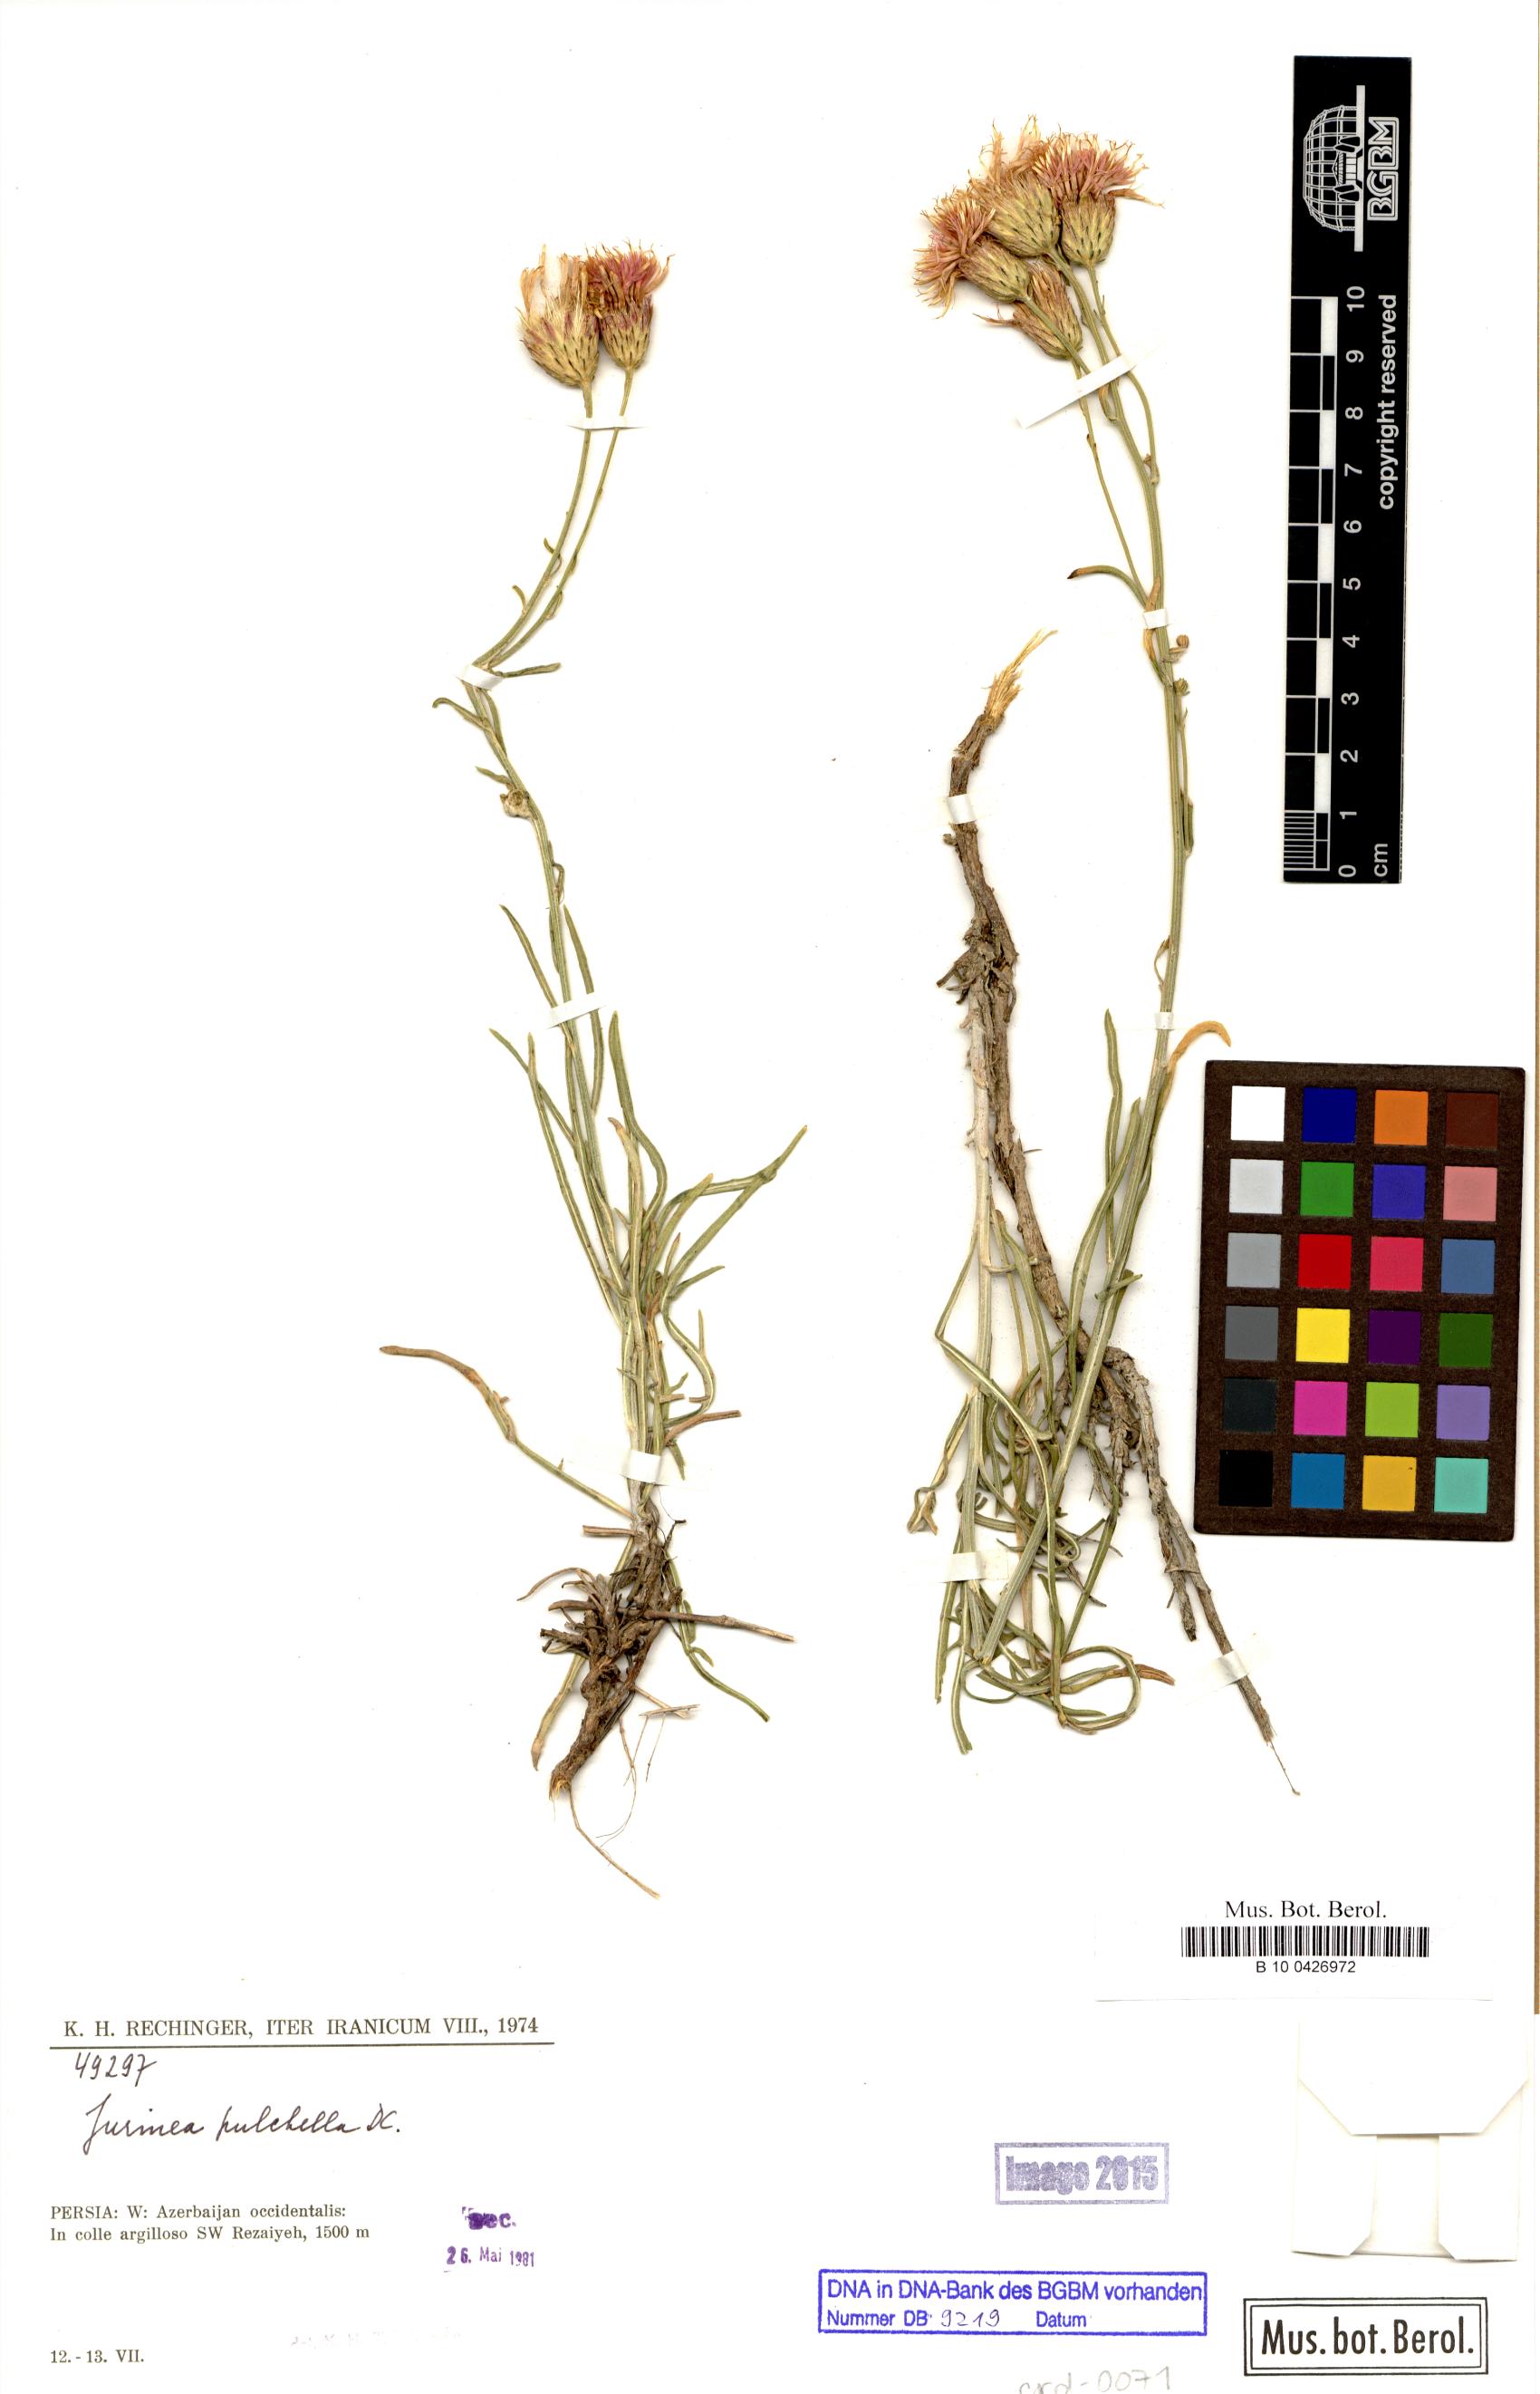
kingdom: Plantae
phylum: Tracheophyta
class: Magnoliopsida
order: Asterales
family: Asteraceae
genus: Jurinea
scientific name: Jurinea pulchella
